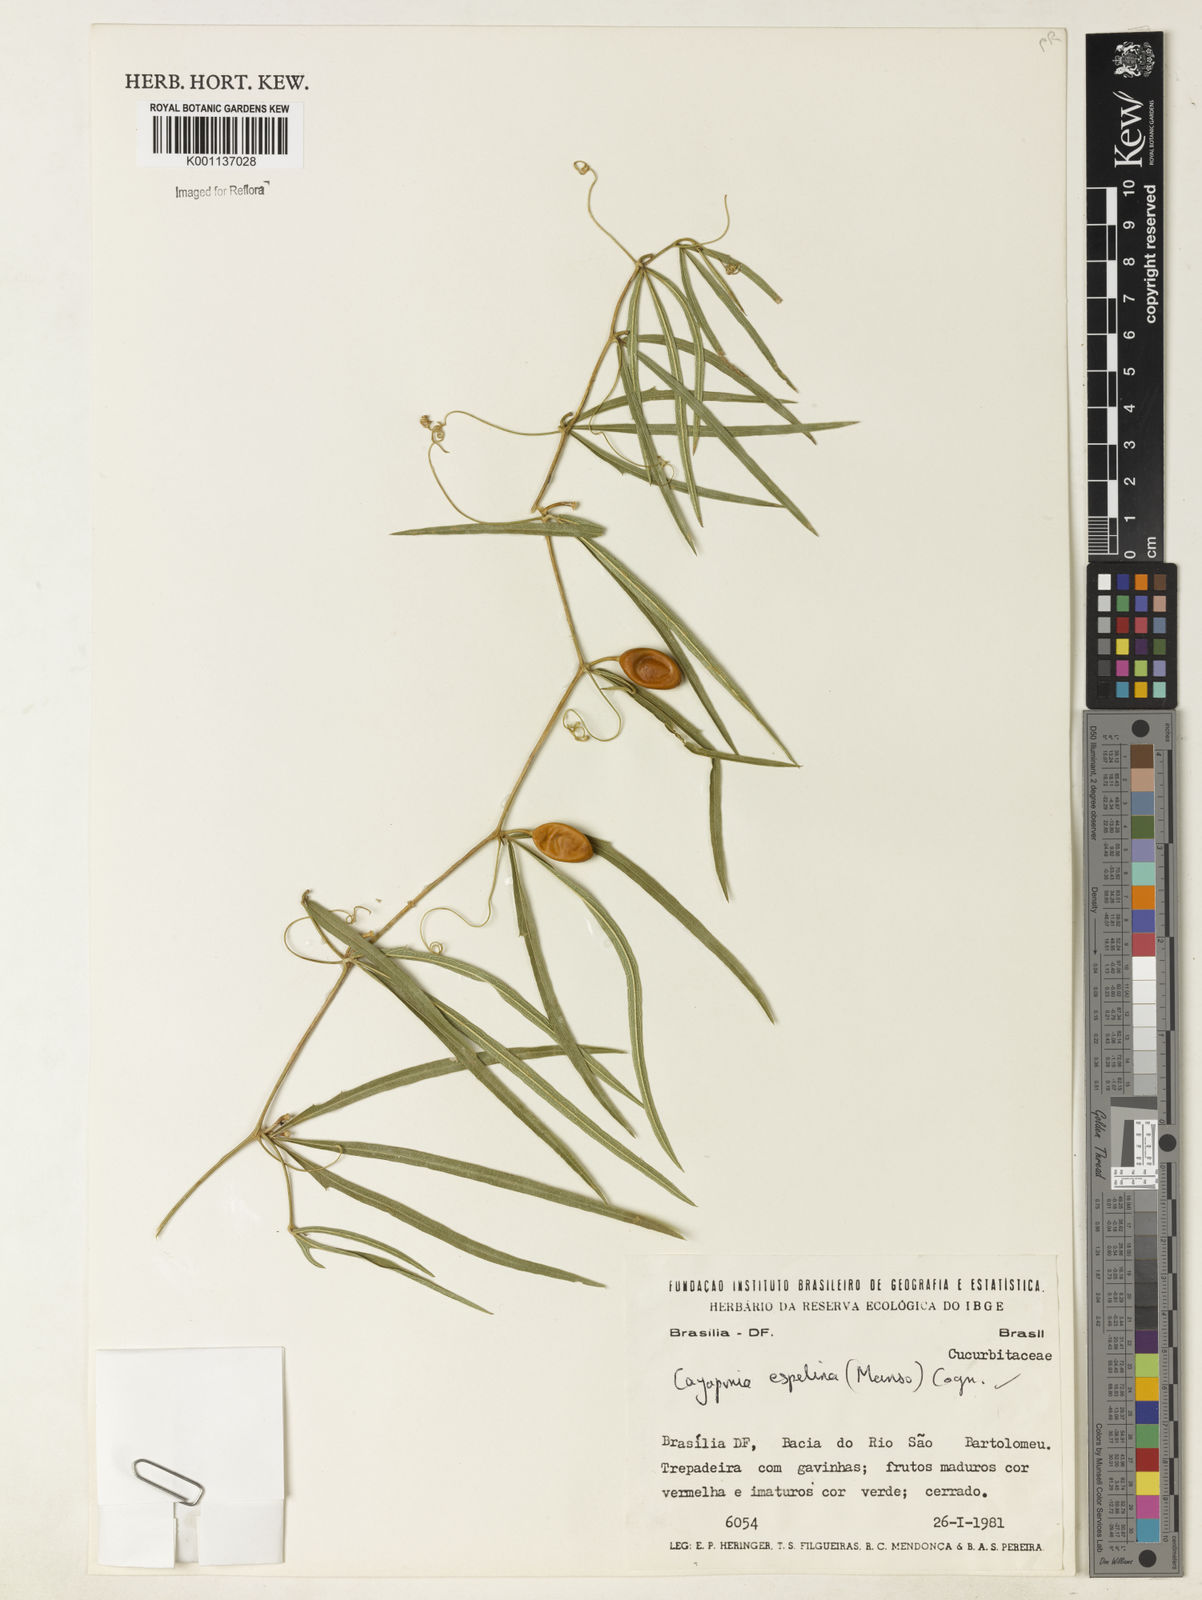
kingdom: Plantae
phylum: Tracheophyta
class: Magnoliopsida
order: Cucurbitales
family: Cucurbitaceae
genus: Cayaponia
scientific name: Cayaponia espelina
